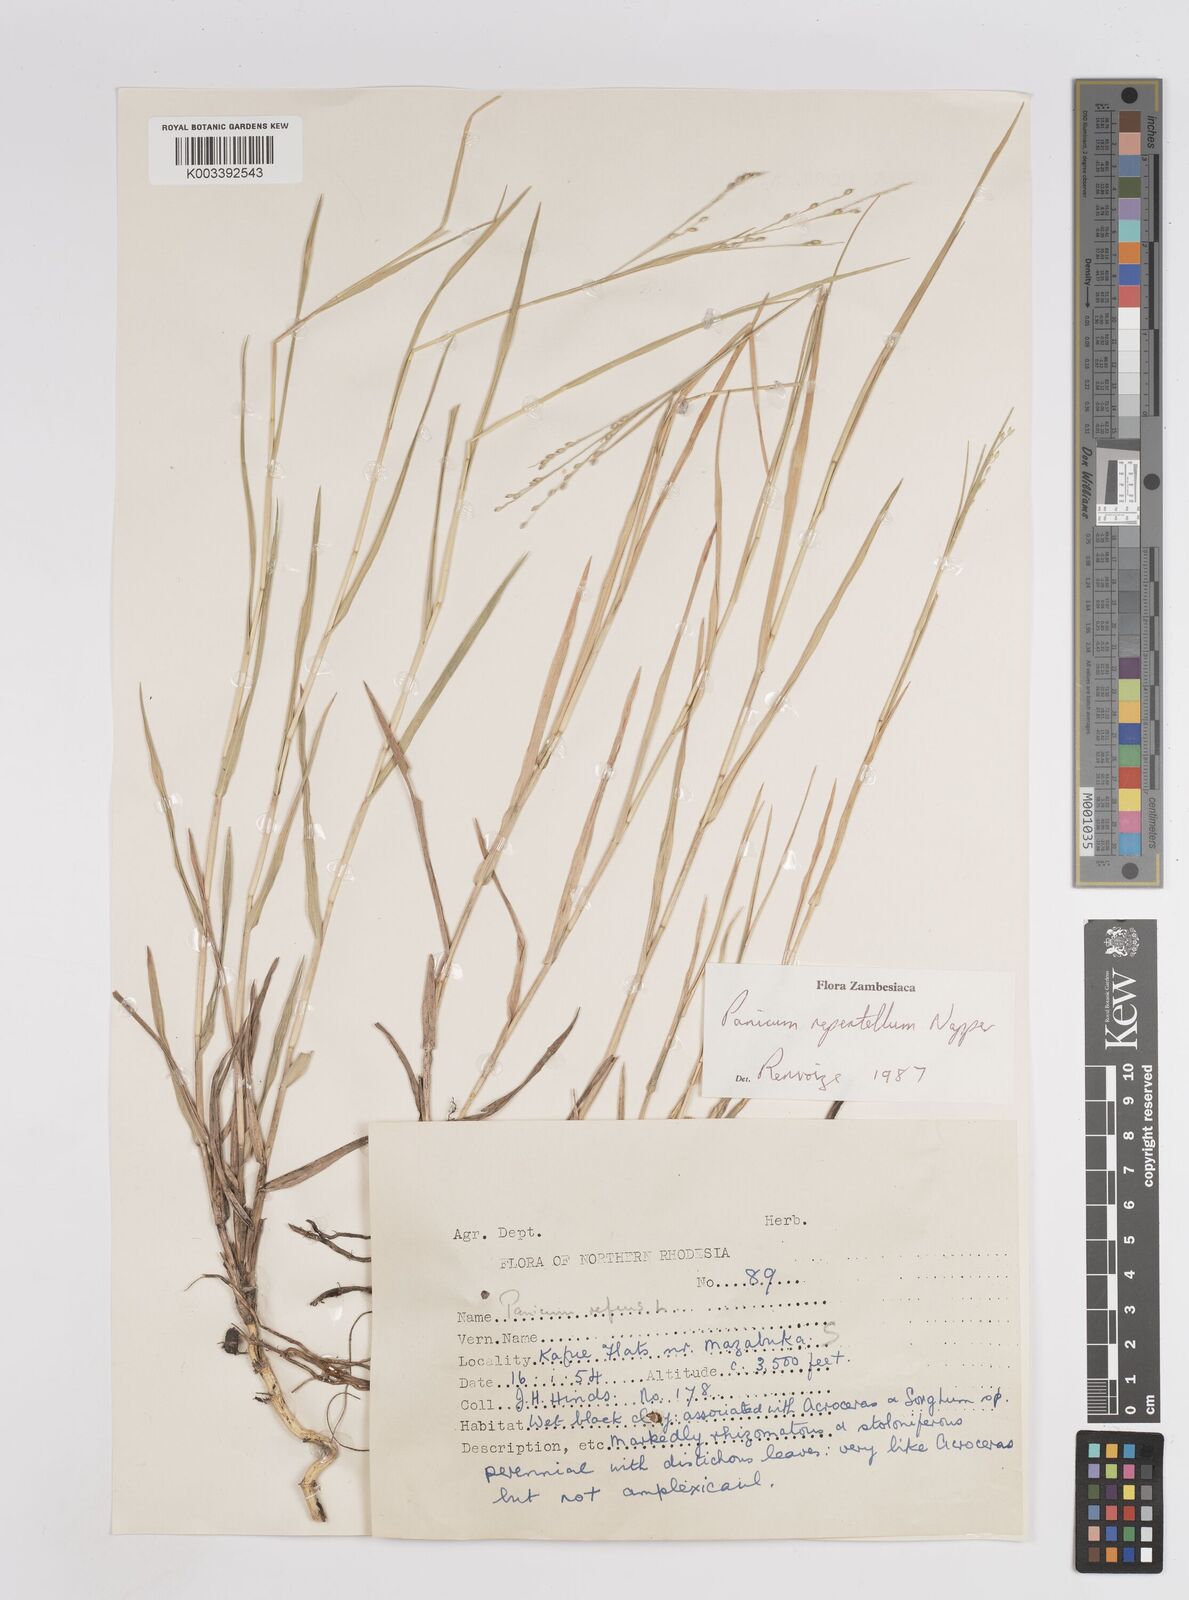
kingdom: Plantae
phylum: Tracheophyta
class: Liliopsida
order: Poales
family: Poaceae
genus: Panicum
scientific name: Panicum hygrocharis
